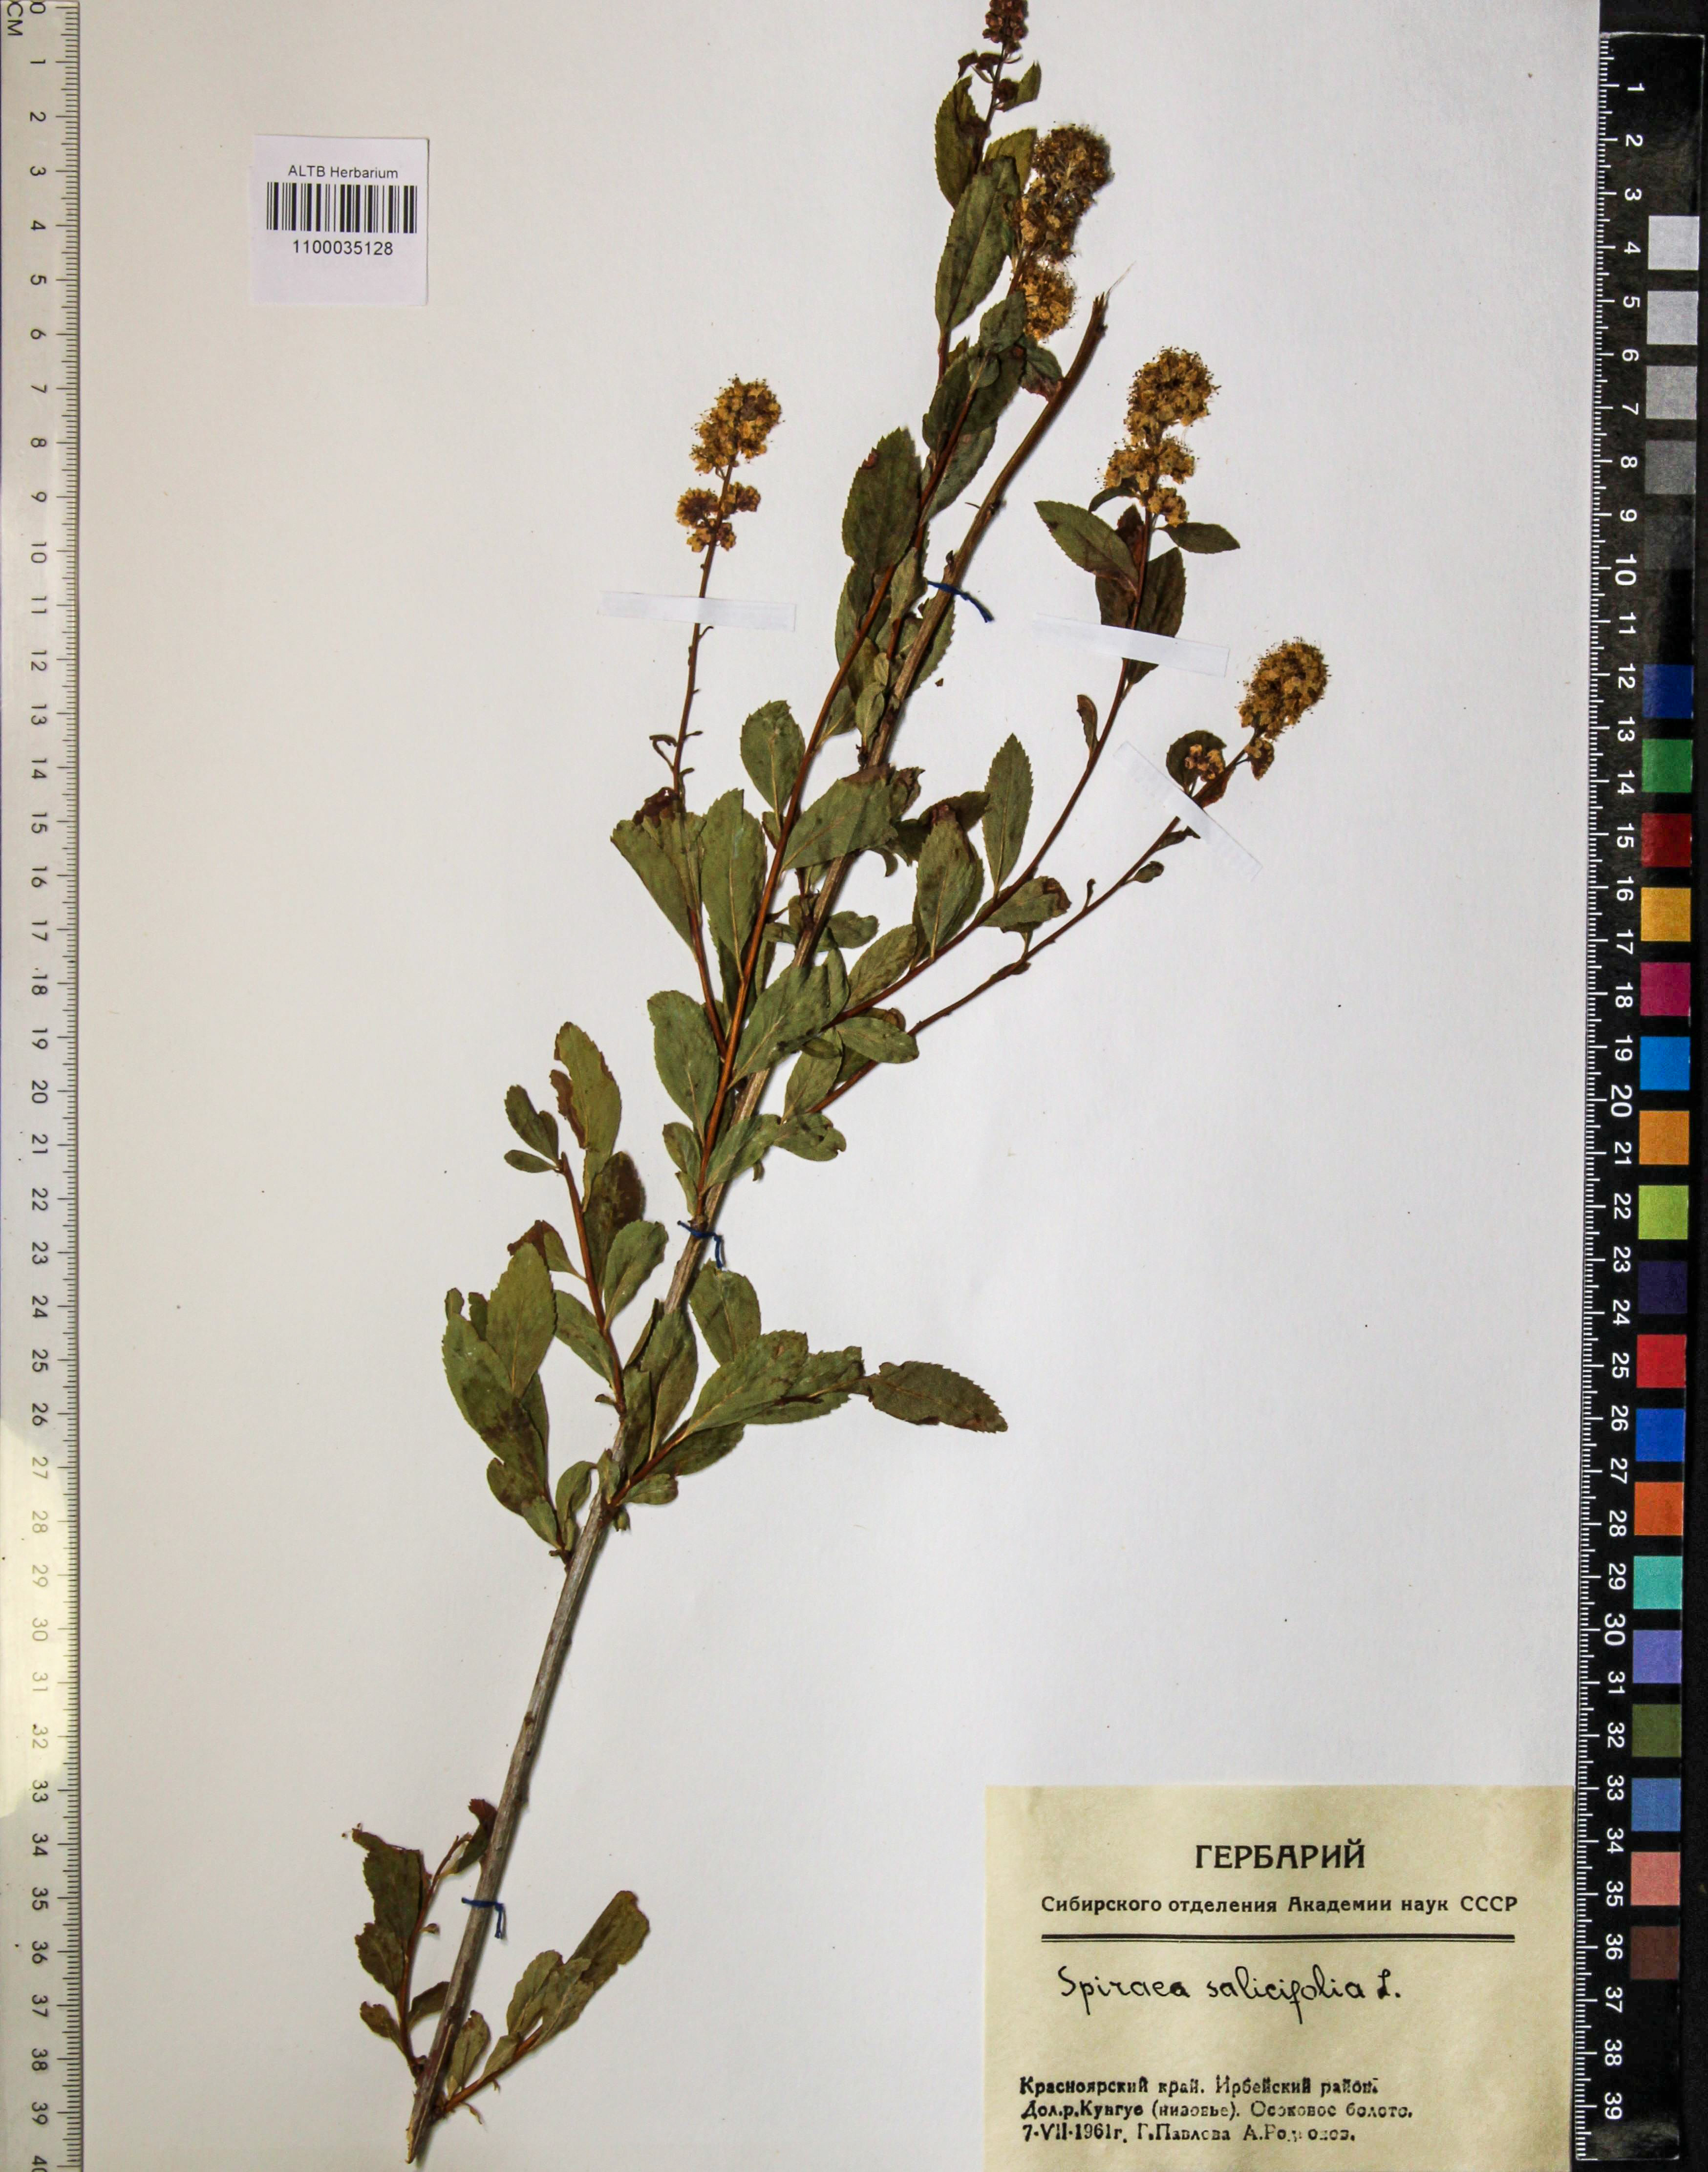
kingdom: Plantae
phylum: Tracheophyta
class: Magnoliopsida
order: Rosales
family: Rosaceae
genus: Spiraea
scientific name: Spiraea salicifolia
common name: Bridewort
